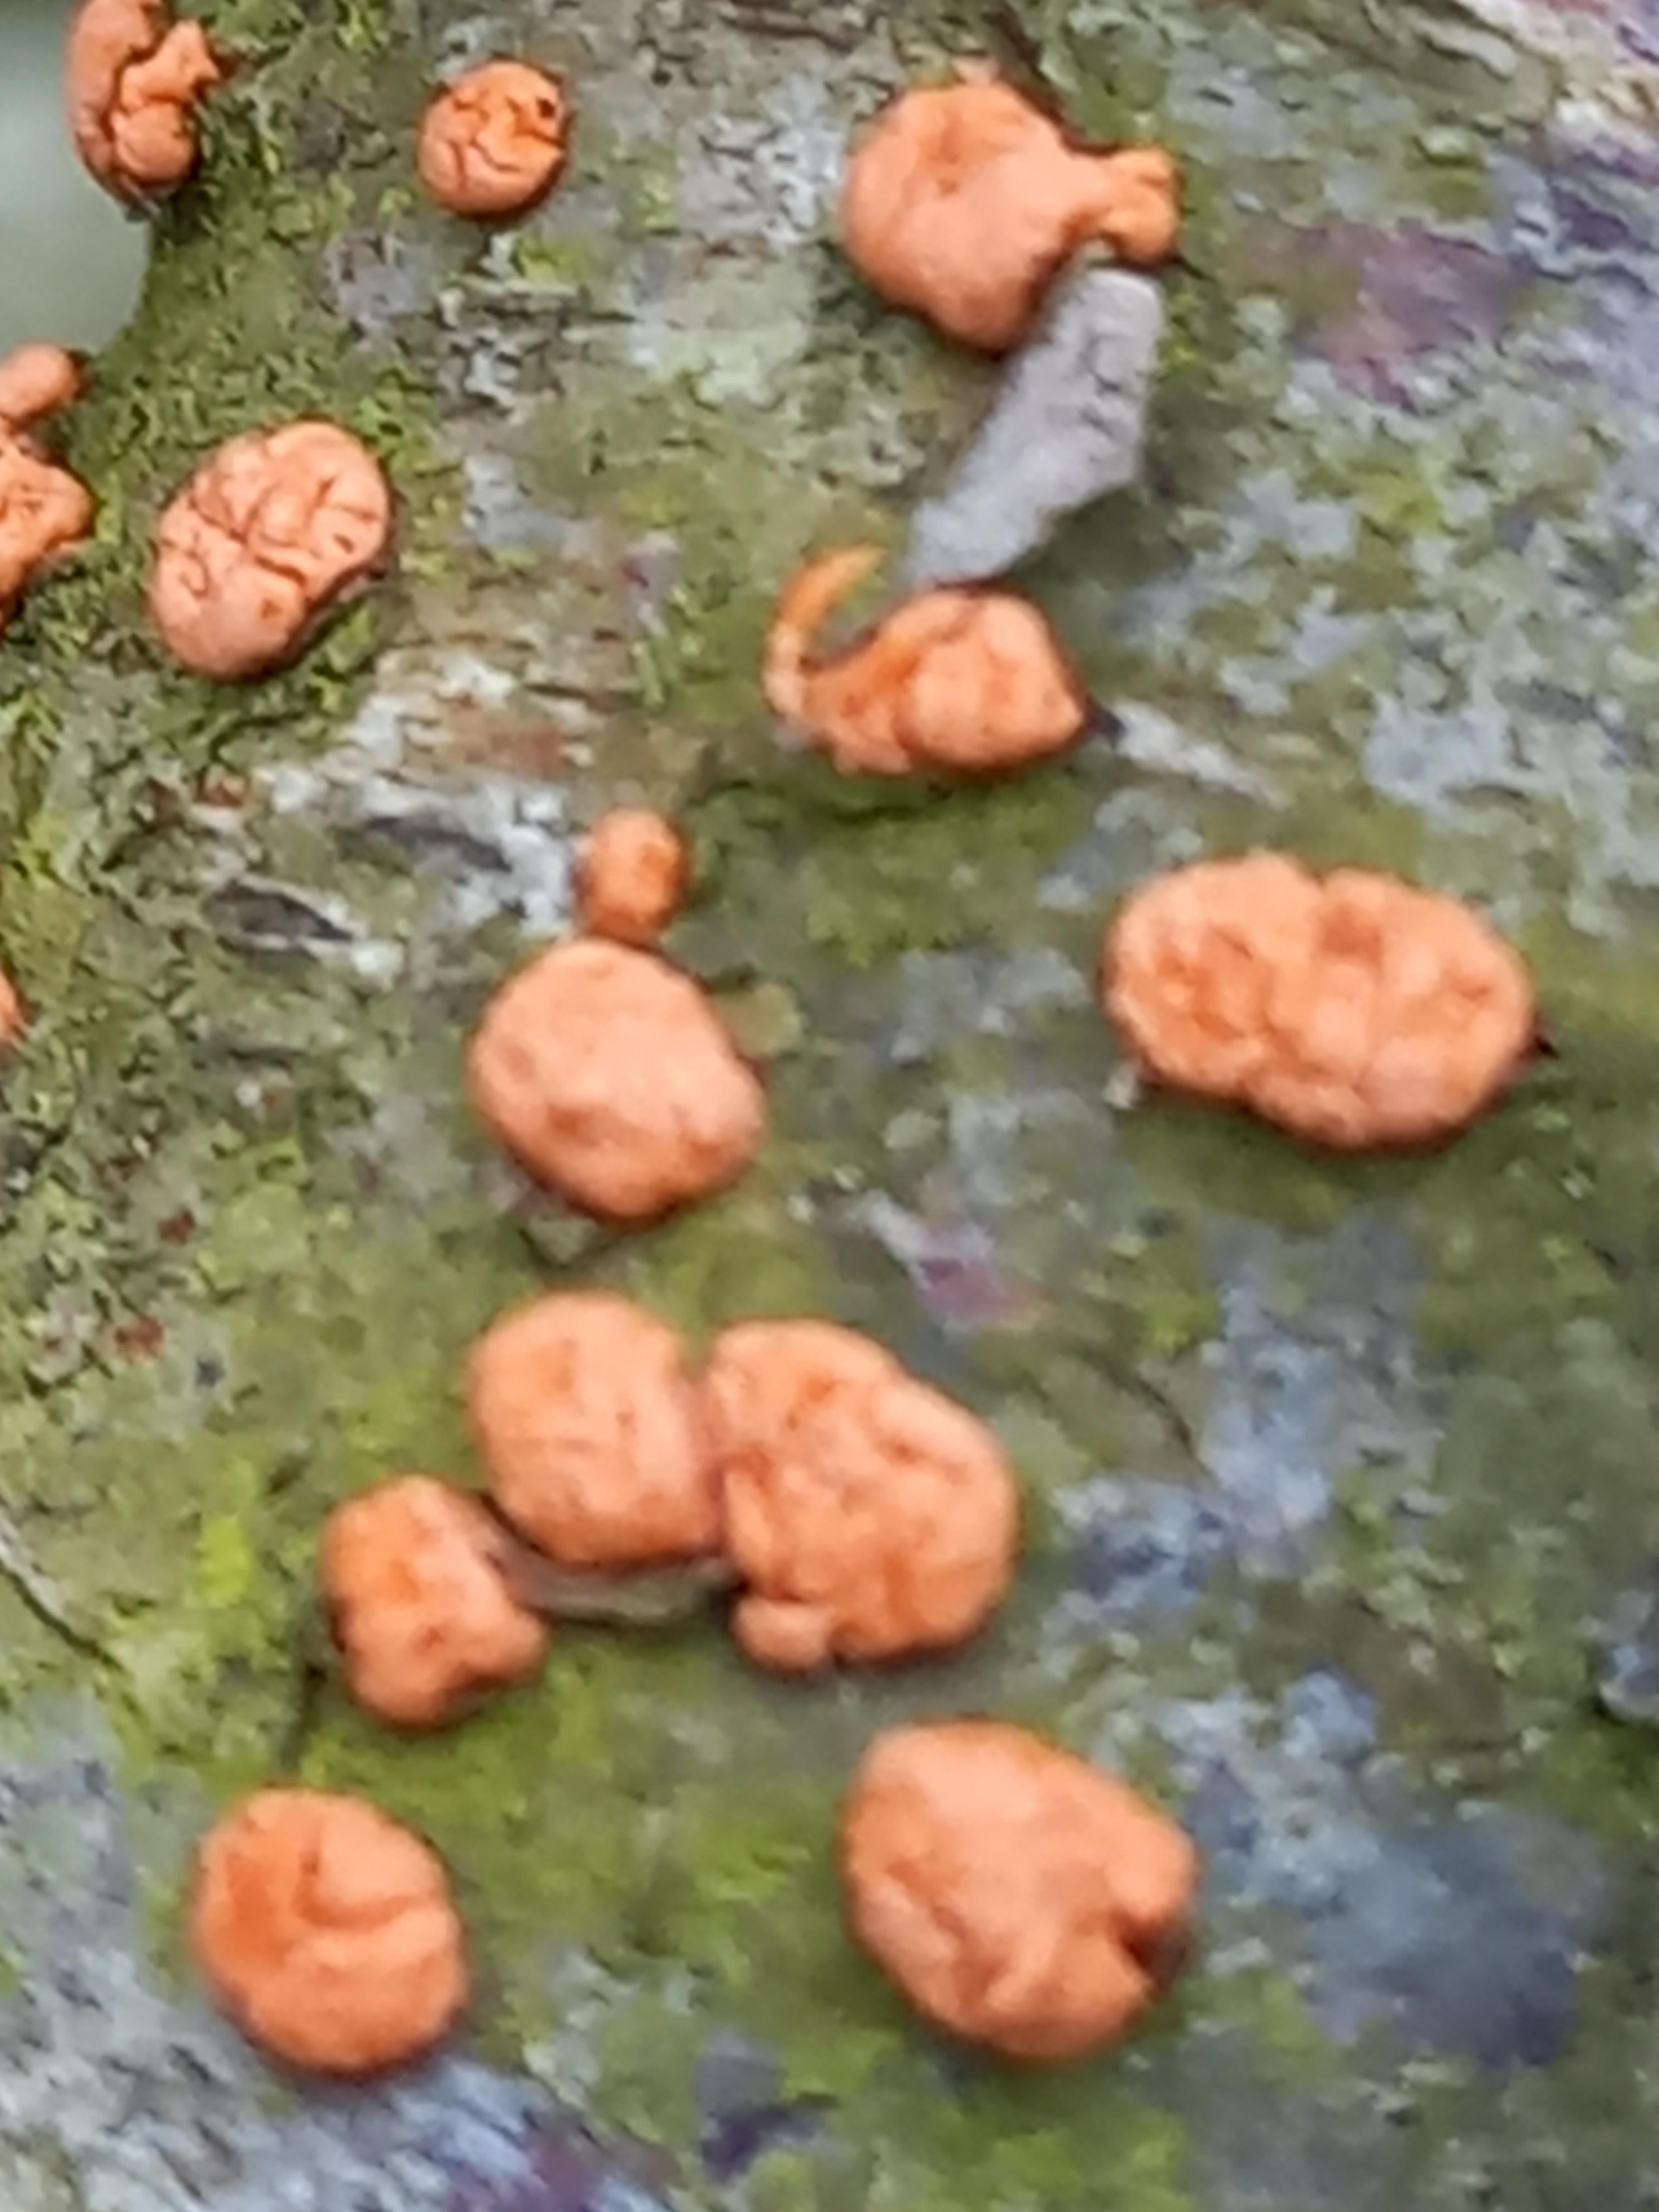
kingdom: Fungi
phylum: Ascomycota
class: Sordariomycetes
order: Hypocreales
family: Nectriaceae
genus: Nectria
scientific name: Nectria cinnabarina
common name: almindelig cinnobersvamp
